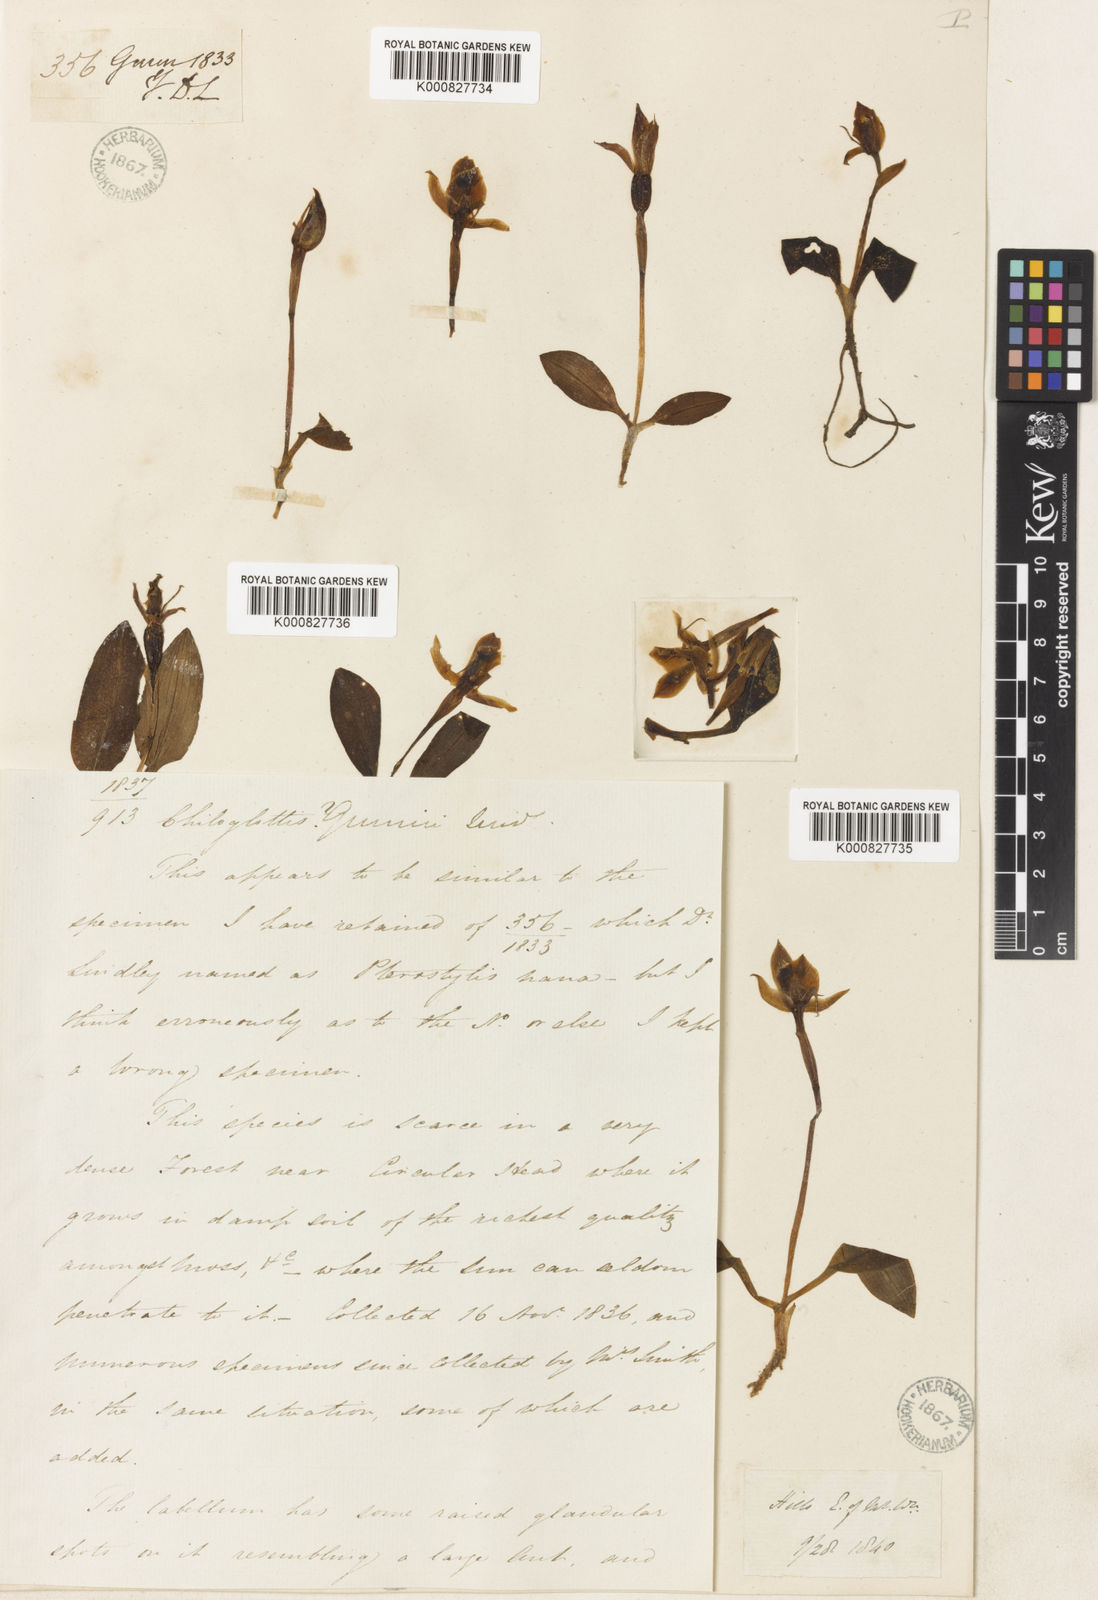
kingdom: Plantae
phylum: Tracheophyta
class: Liliopsida
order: Asparagales
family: Orchidaceae
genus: Cylindrolobus
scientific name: Cylindrolobus leptocarpus
